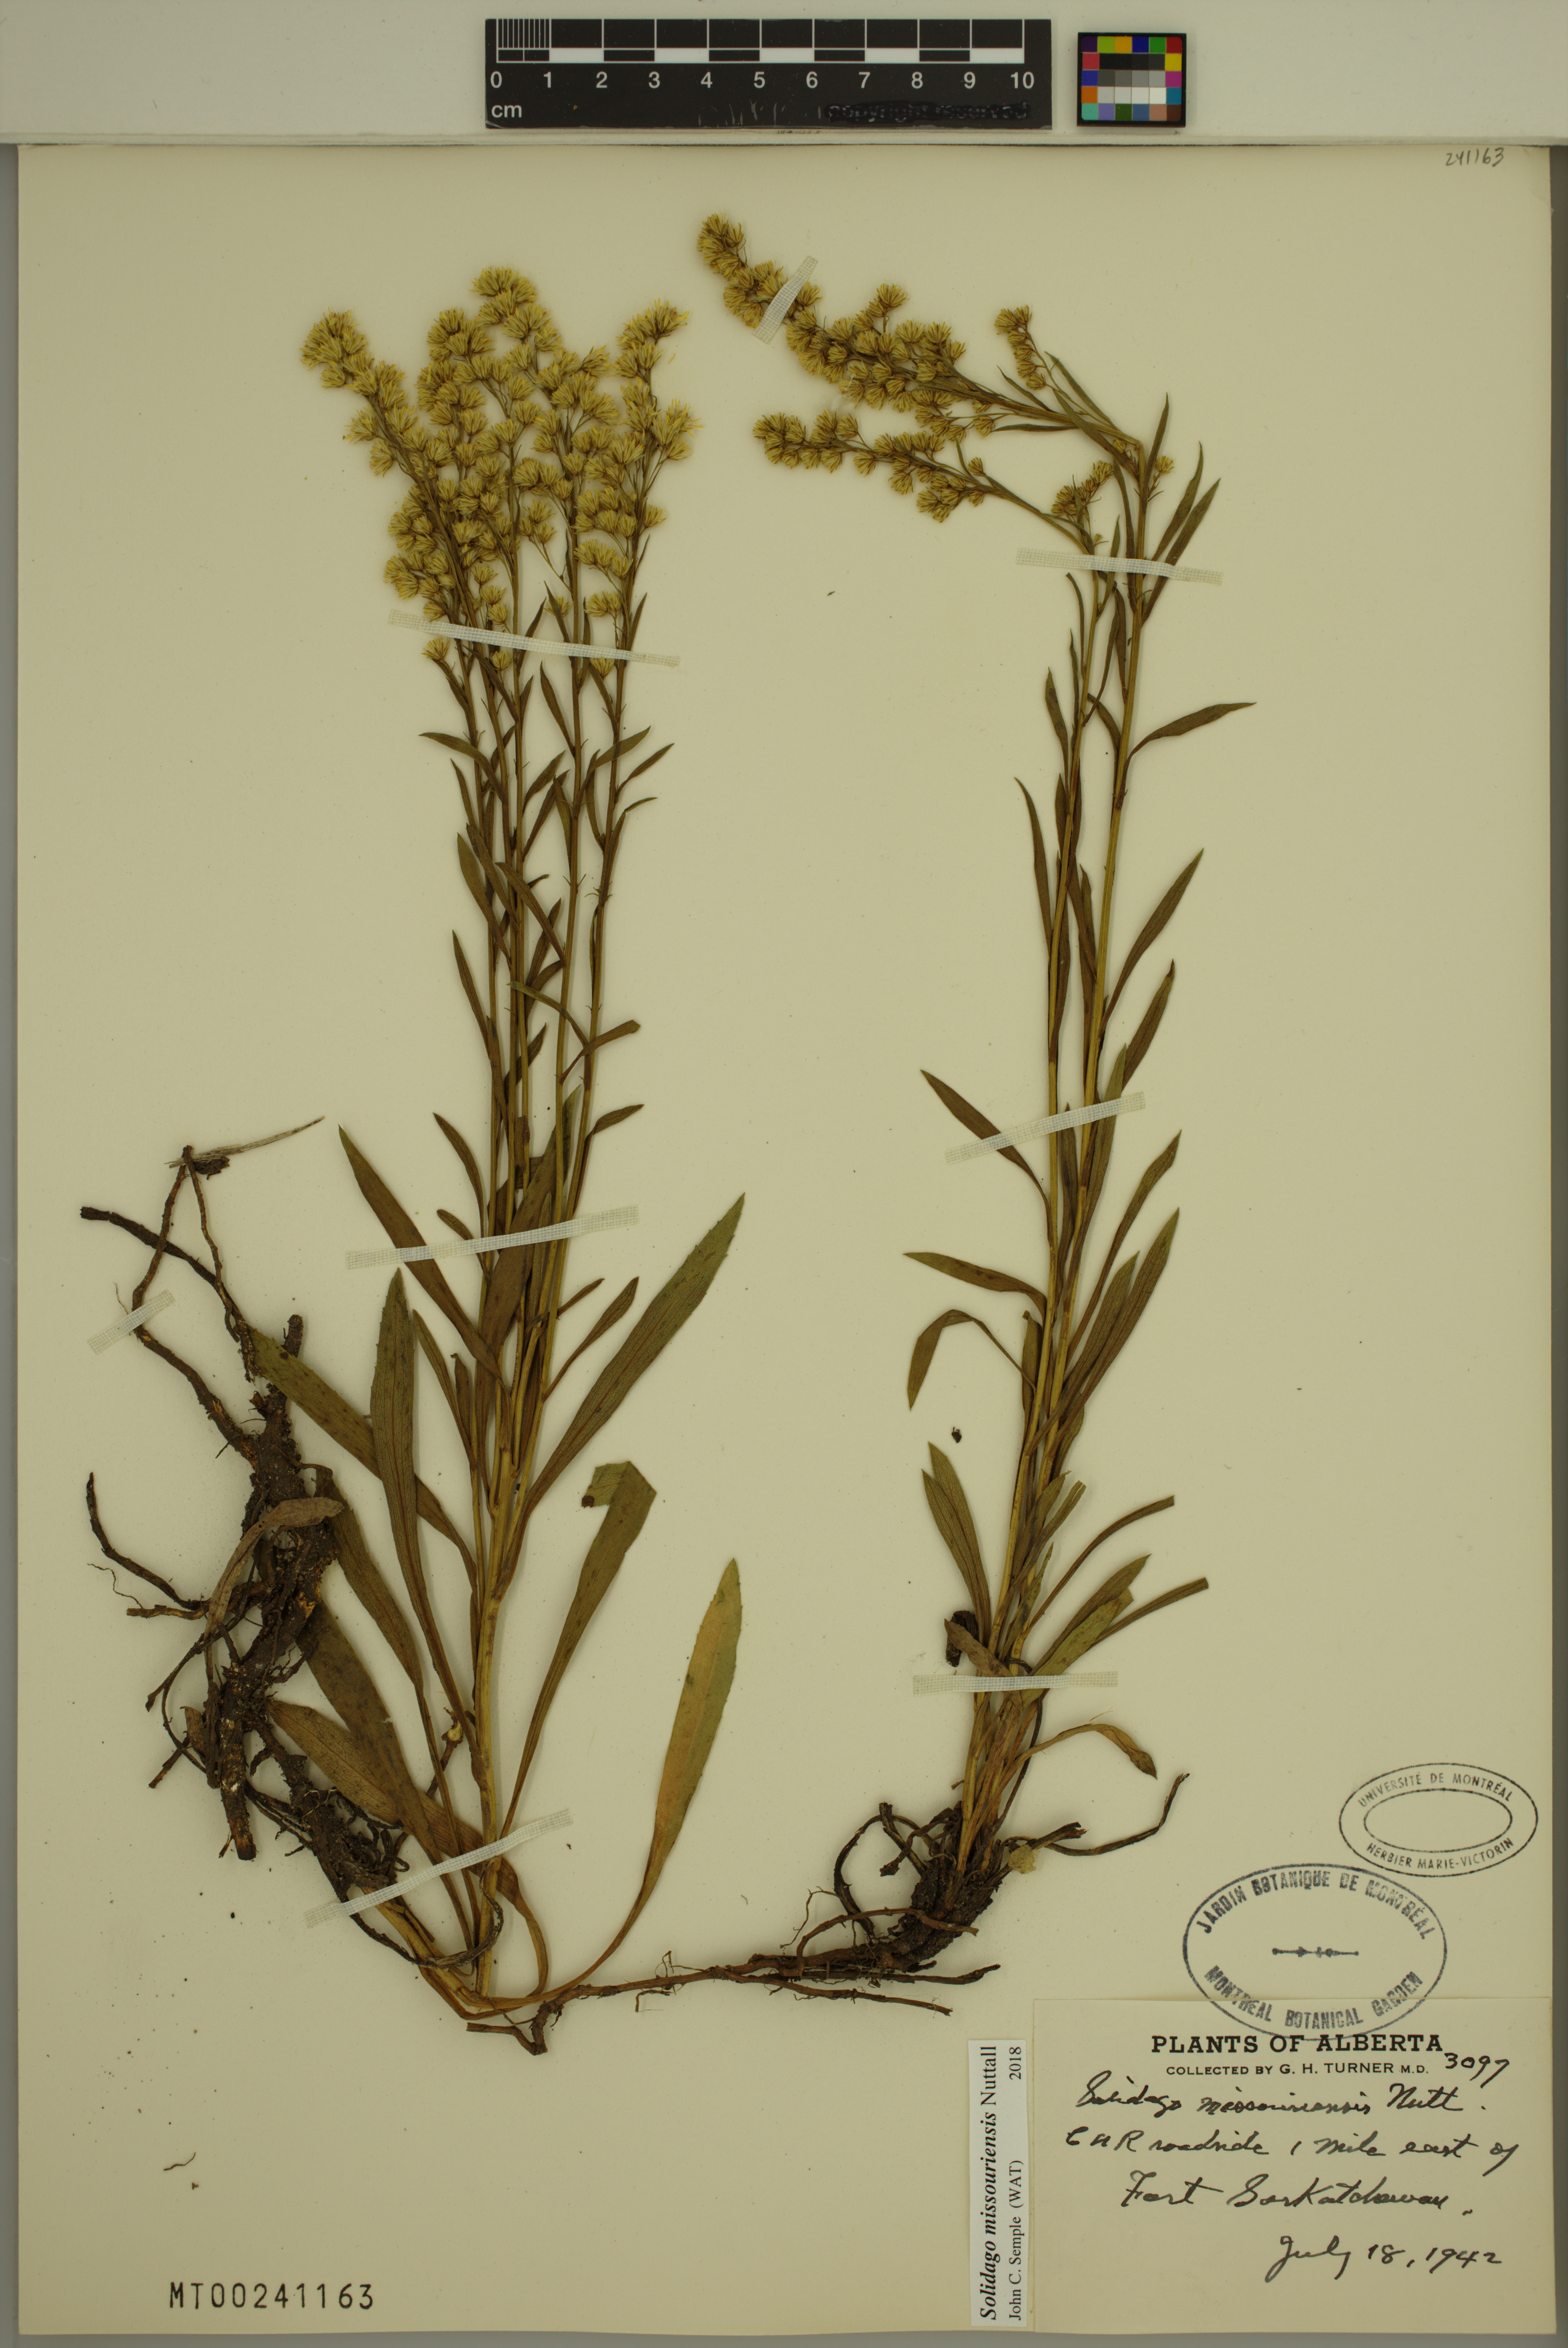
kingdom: Plantae
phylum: Tracheophyta
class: Magnoliopsida
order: Asterales
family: Asteraceae
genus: Solidago
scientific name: Solidago missouriensis
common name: Prairie goldenrod
